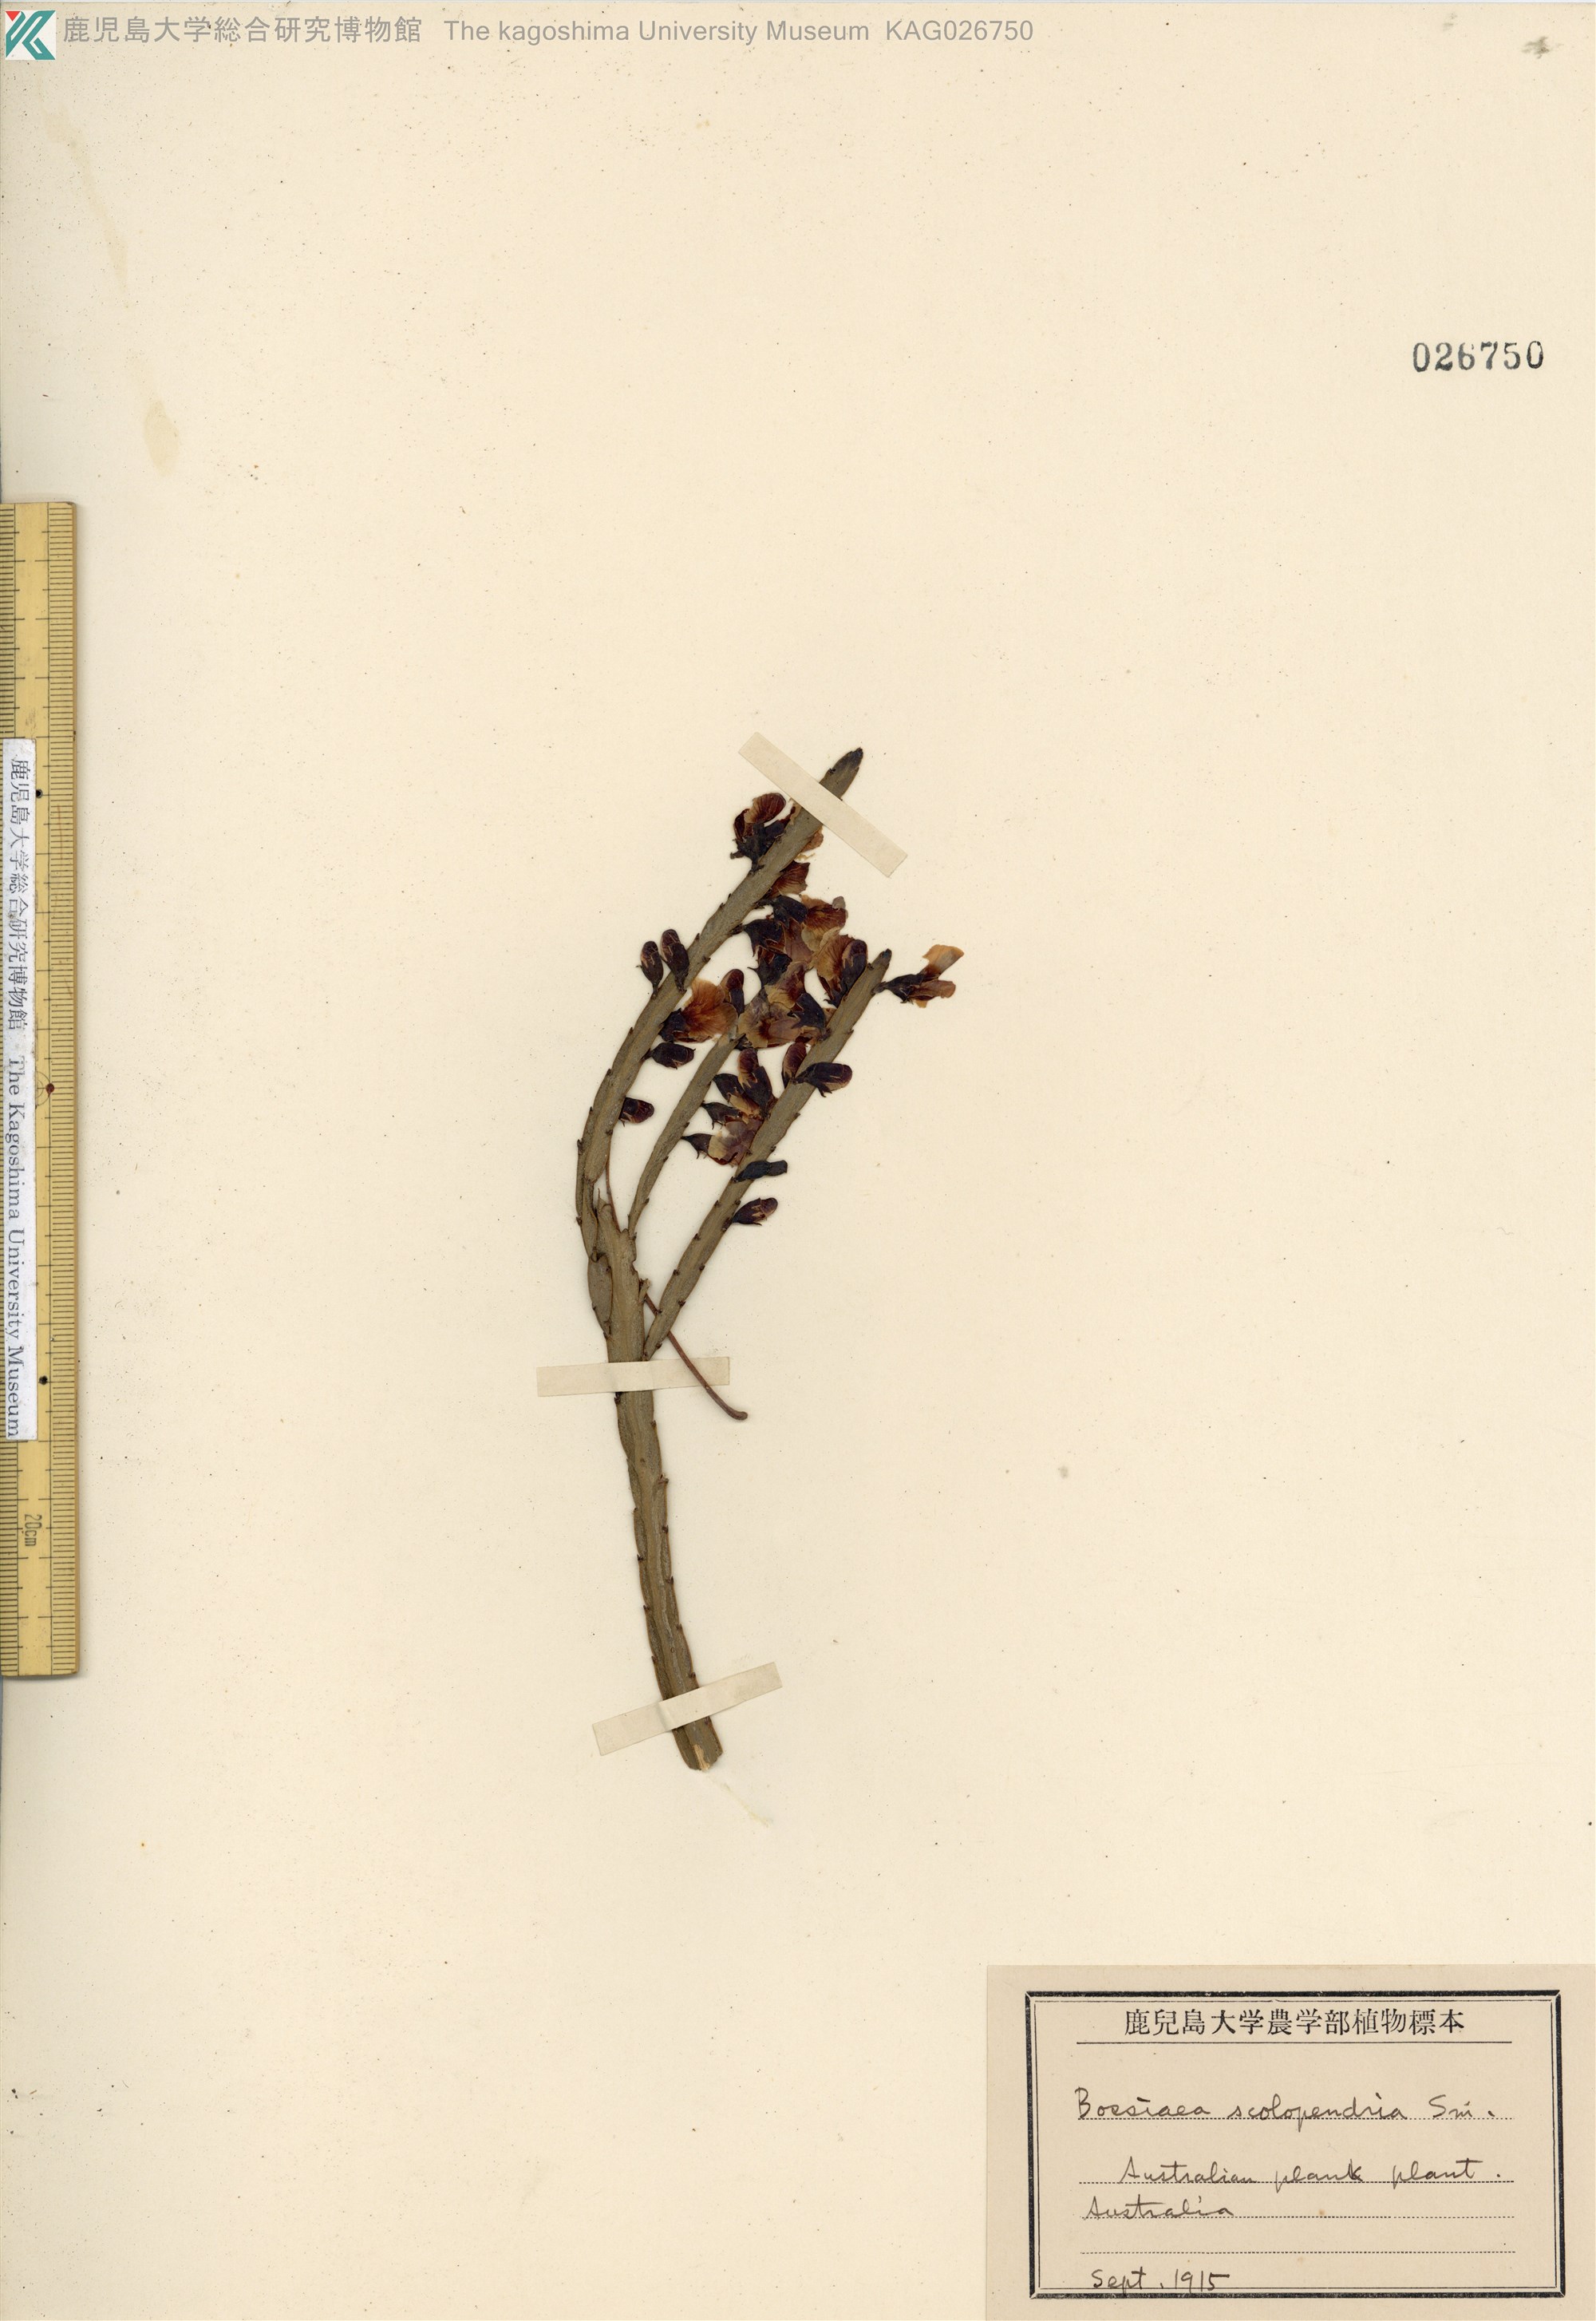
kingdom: Plantae
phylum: Tracheophyta
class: Magnoliopsida
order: Fabales
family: Fabaceae
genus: Bossiaea
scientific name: Bossiaea scolopendria
